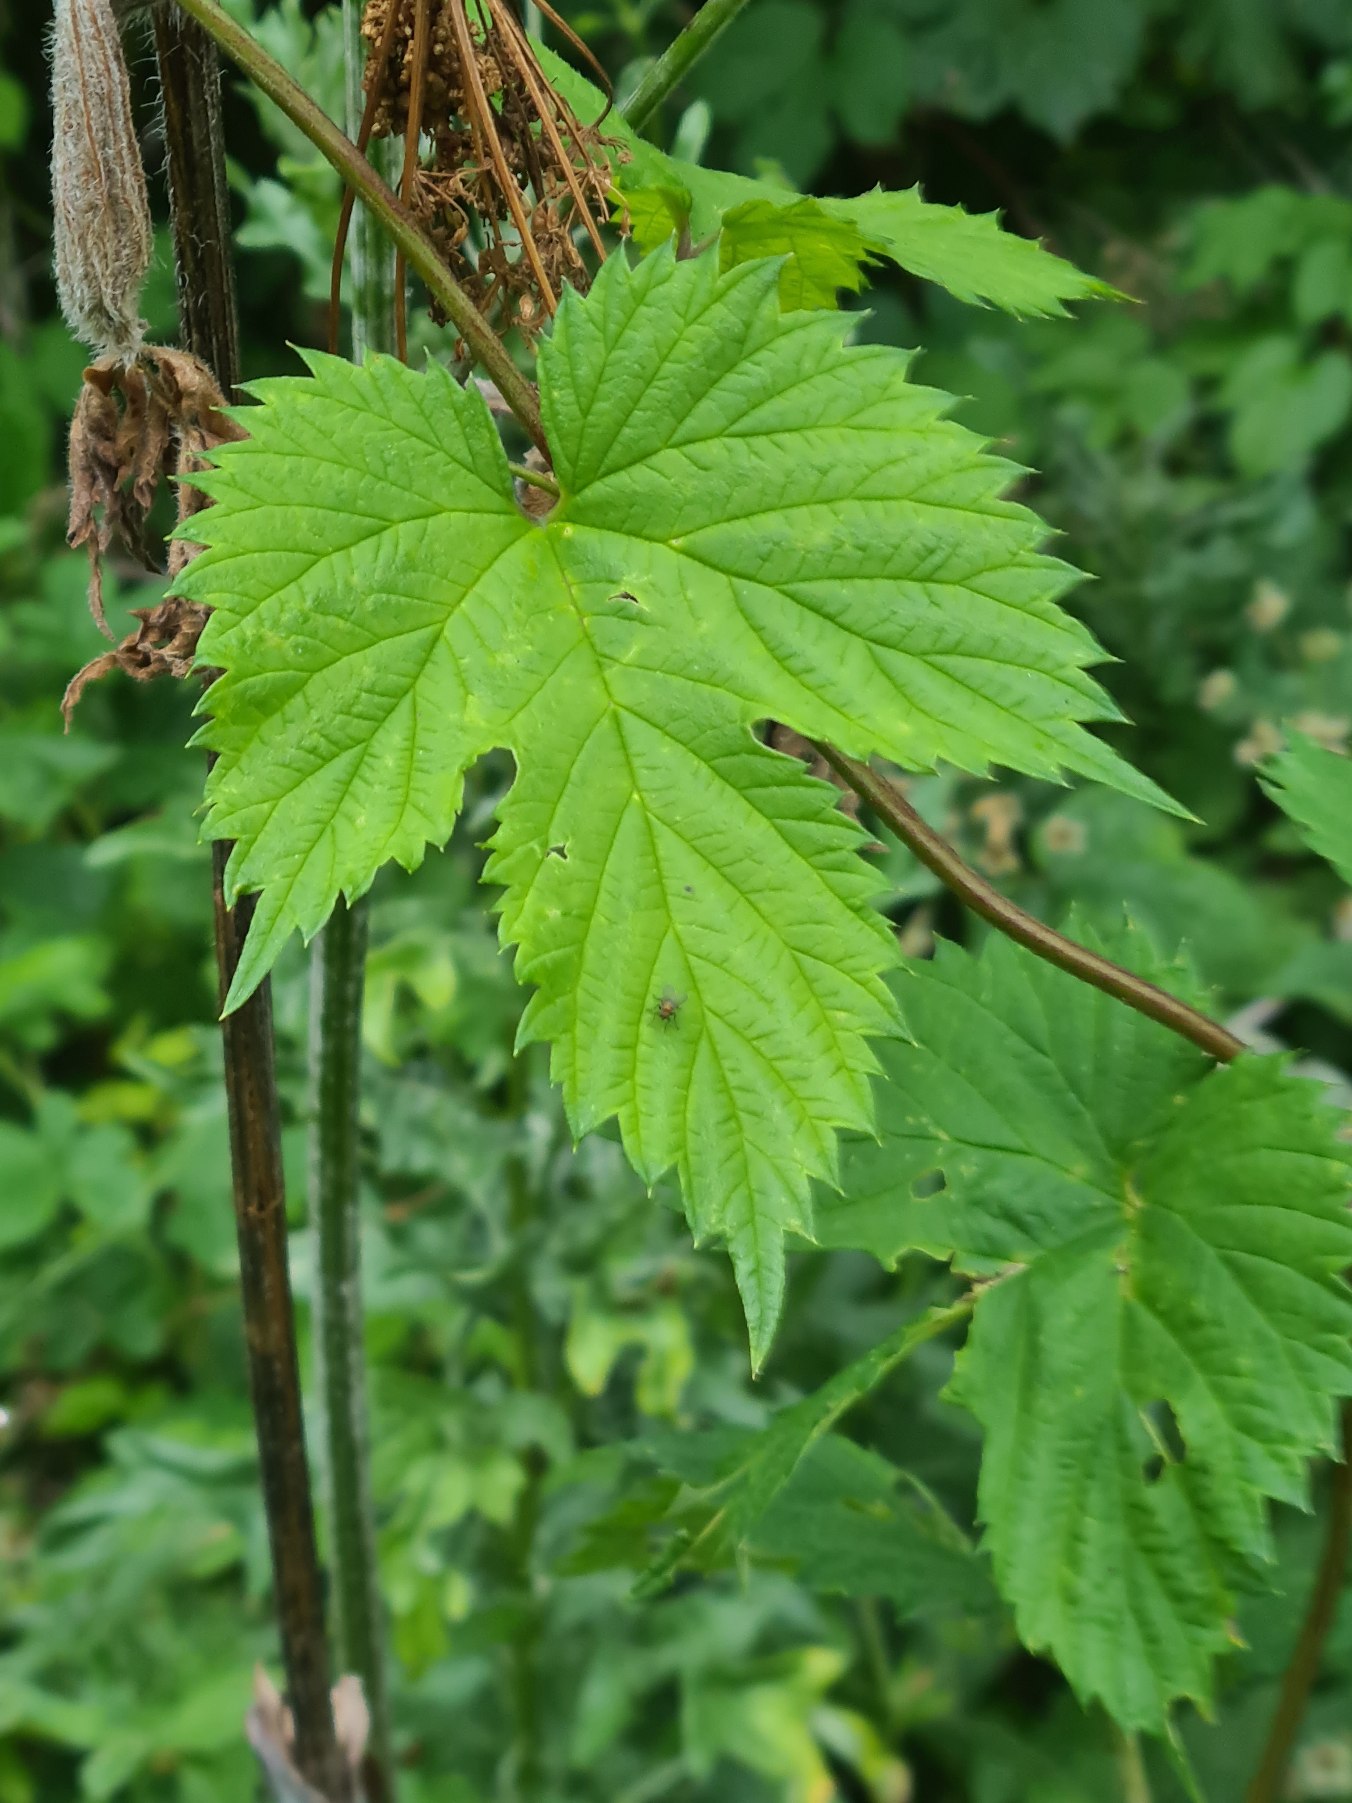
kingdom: Plantae
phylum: Tracheophyta
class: Magnoliopsida
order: Rosales
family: Cannabaceae
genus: Humulus
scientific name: Humulus lupulus
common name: Humle
